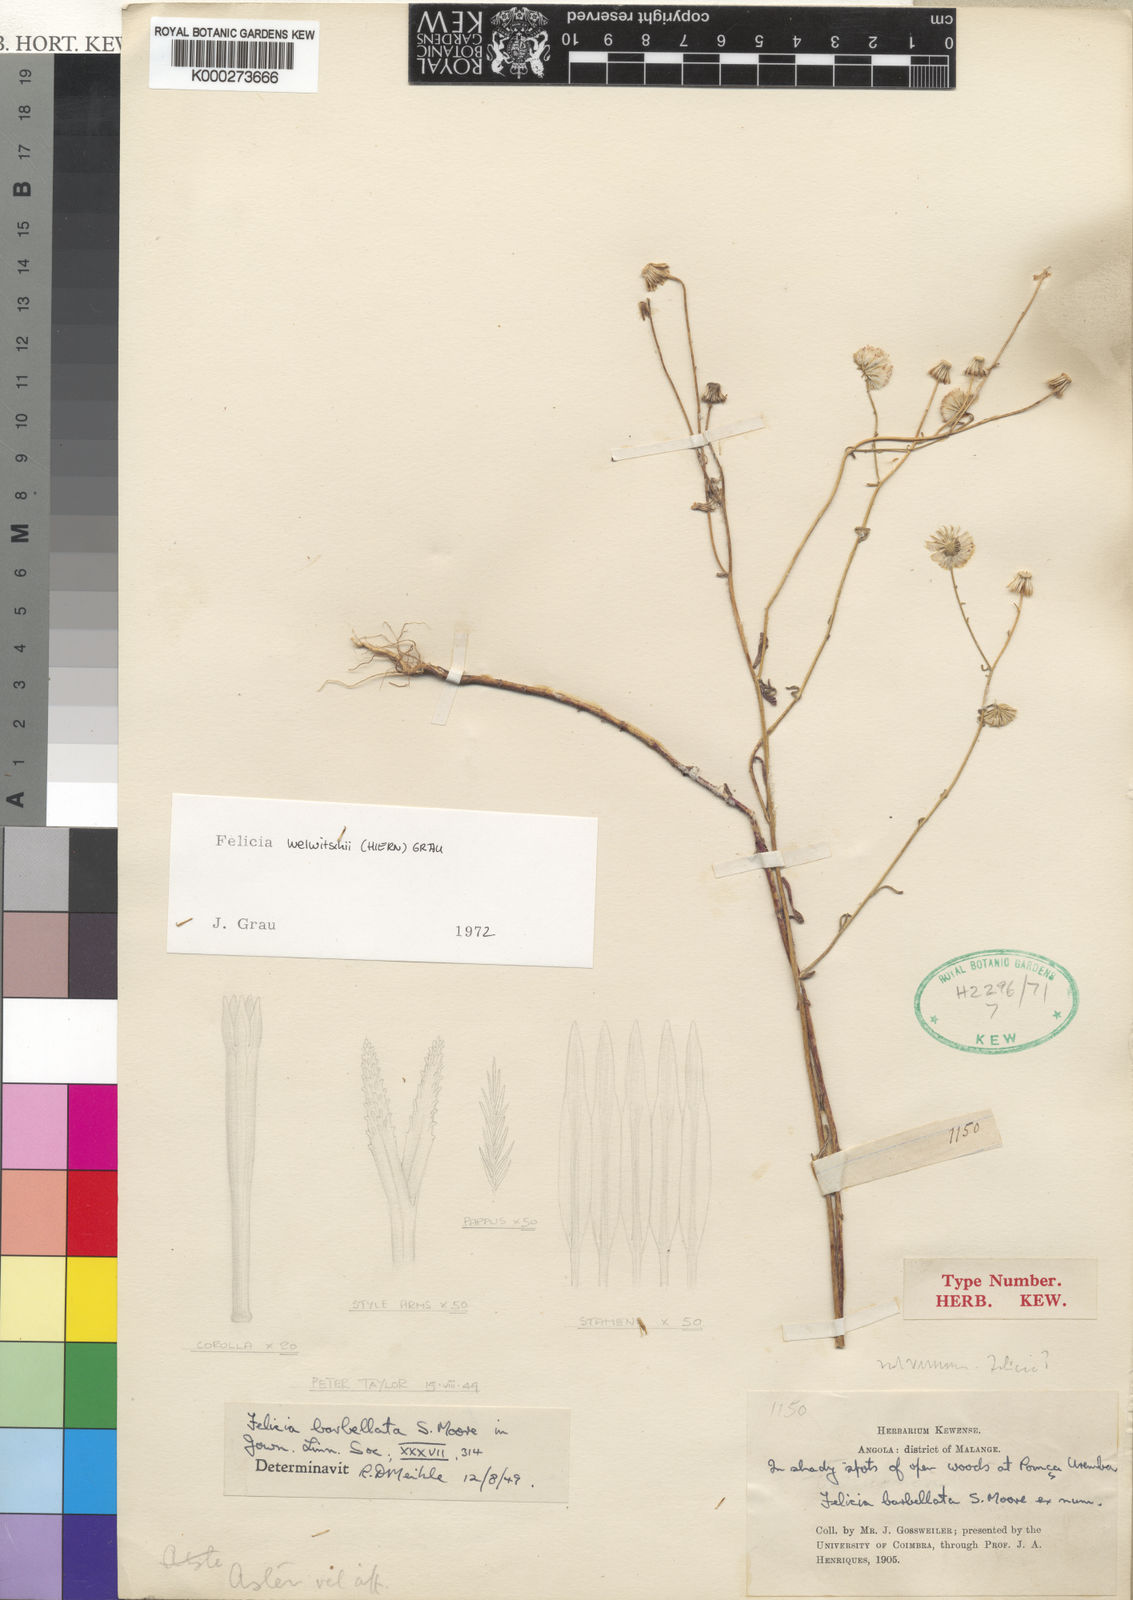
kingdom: Plantae
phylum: Tracheophyta
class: Magnoliopsida
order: Asterales
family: Asteraceae
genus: Felicia
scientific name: Felicia welwitschii
